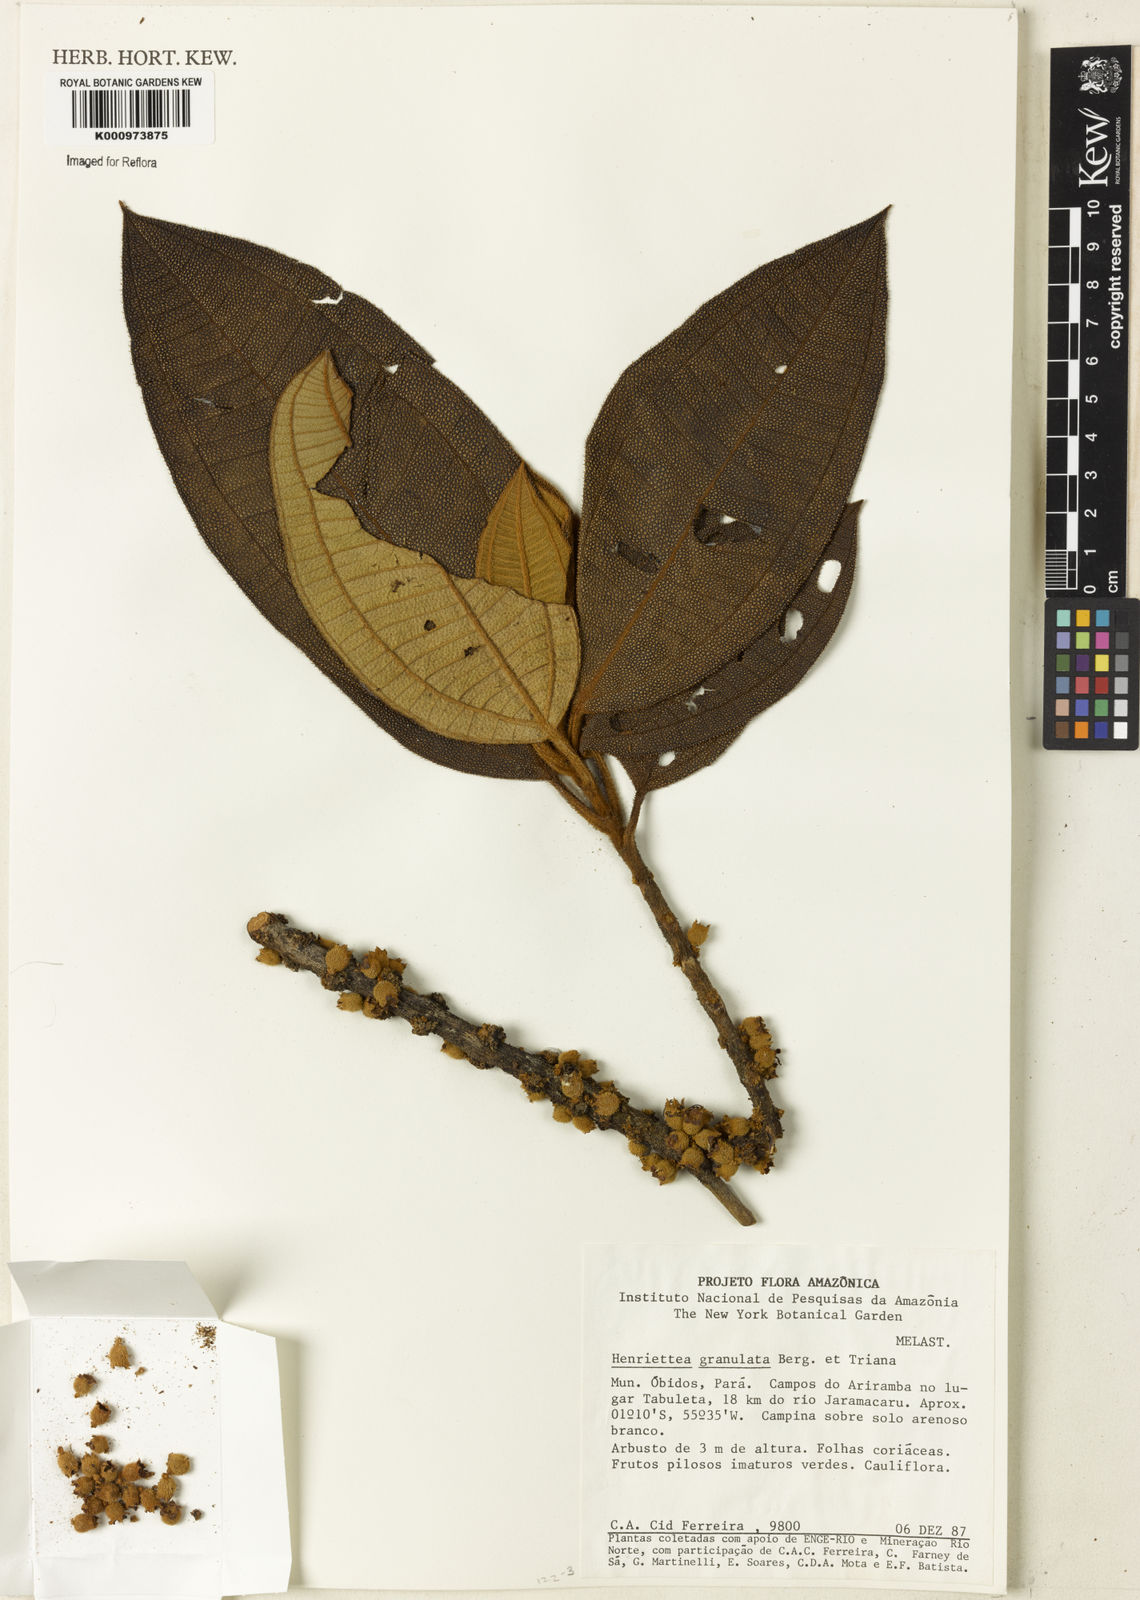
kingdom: Plantae
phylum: Tracheophyta
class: Magnoliopsida
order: Myrtales
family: Melastomataceae
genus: Henriettea
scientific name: Henriettea granulata
